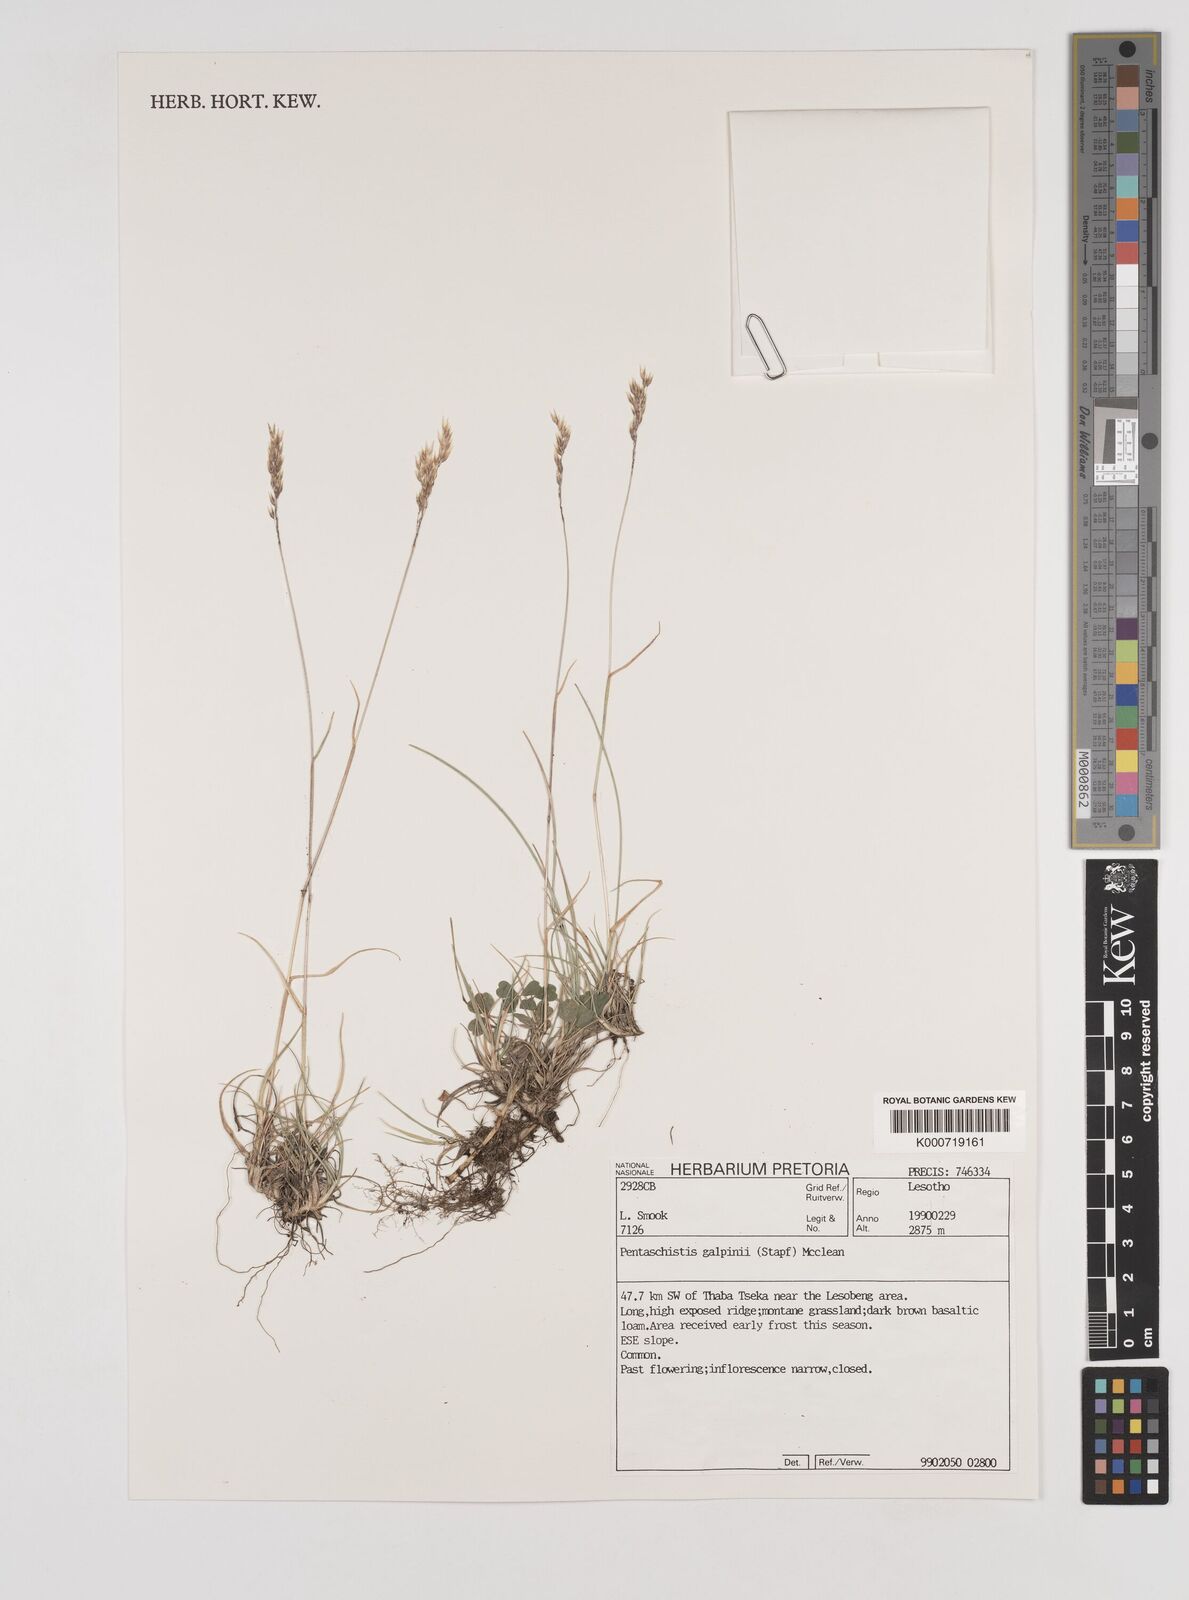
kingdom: Plantae
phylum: Tracheophyta
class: Liliopsida
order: Poales
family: Poaceae
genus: Pentameris
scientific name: Pentameris galpinii
